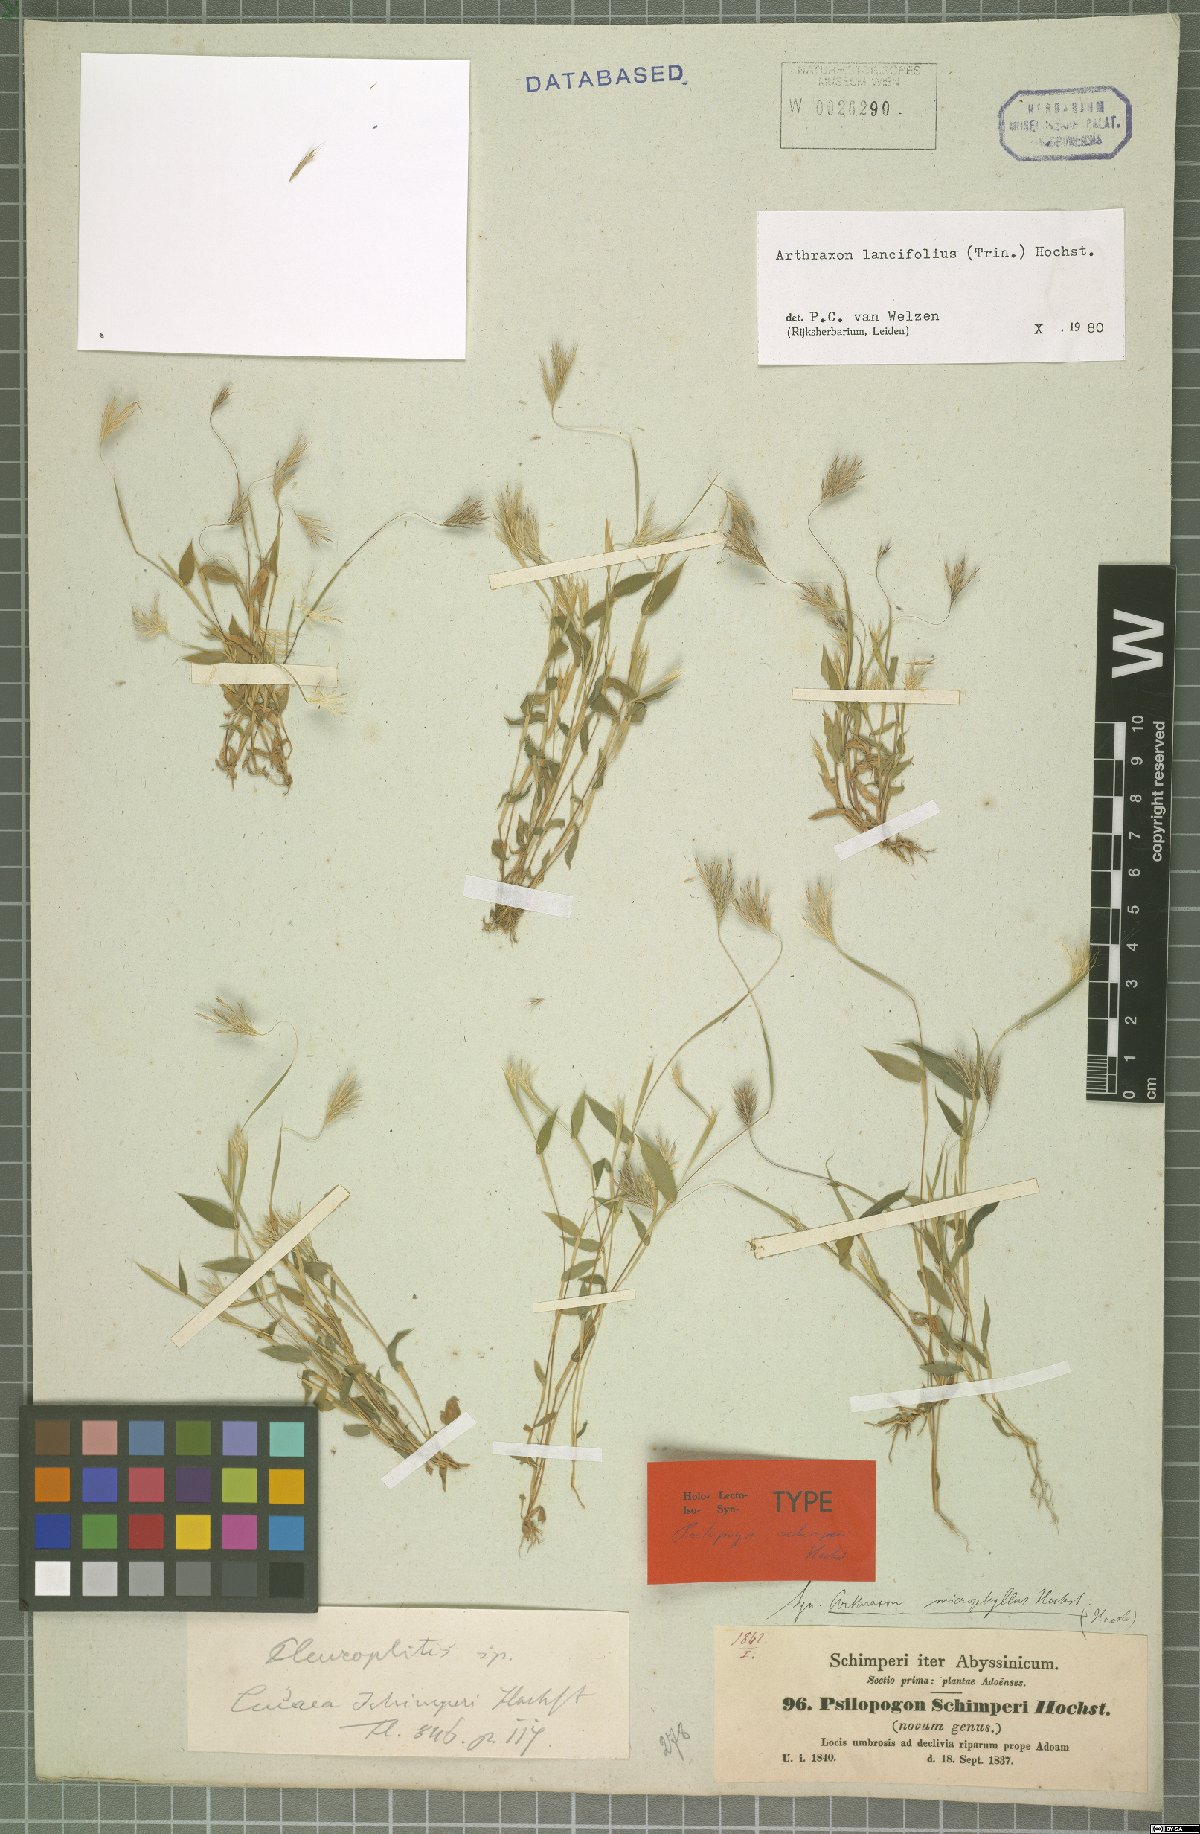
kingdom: Plantae
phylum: Tracheophyta
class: Liliopsida
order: Poales
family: Poaceae
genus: Arthraxon
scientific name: Arthraxon lancifolius
